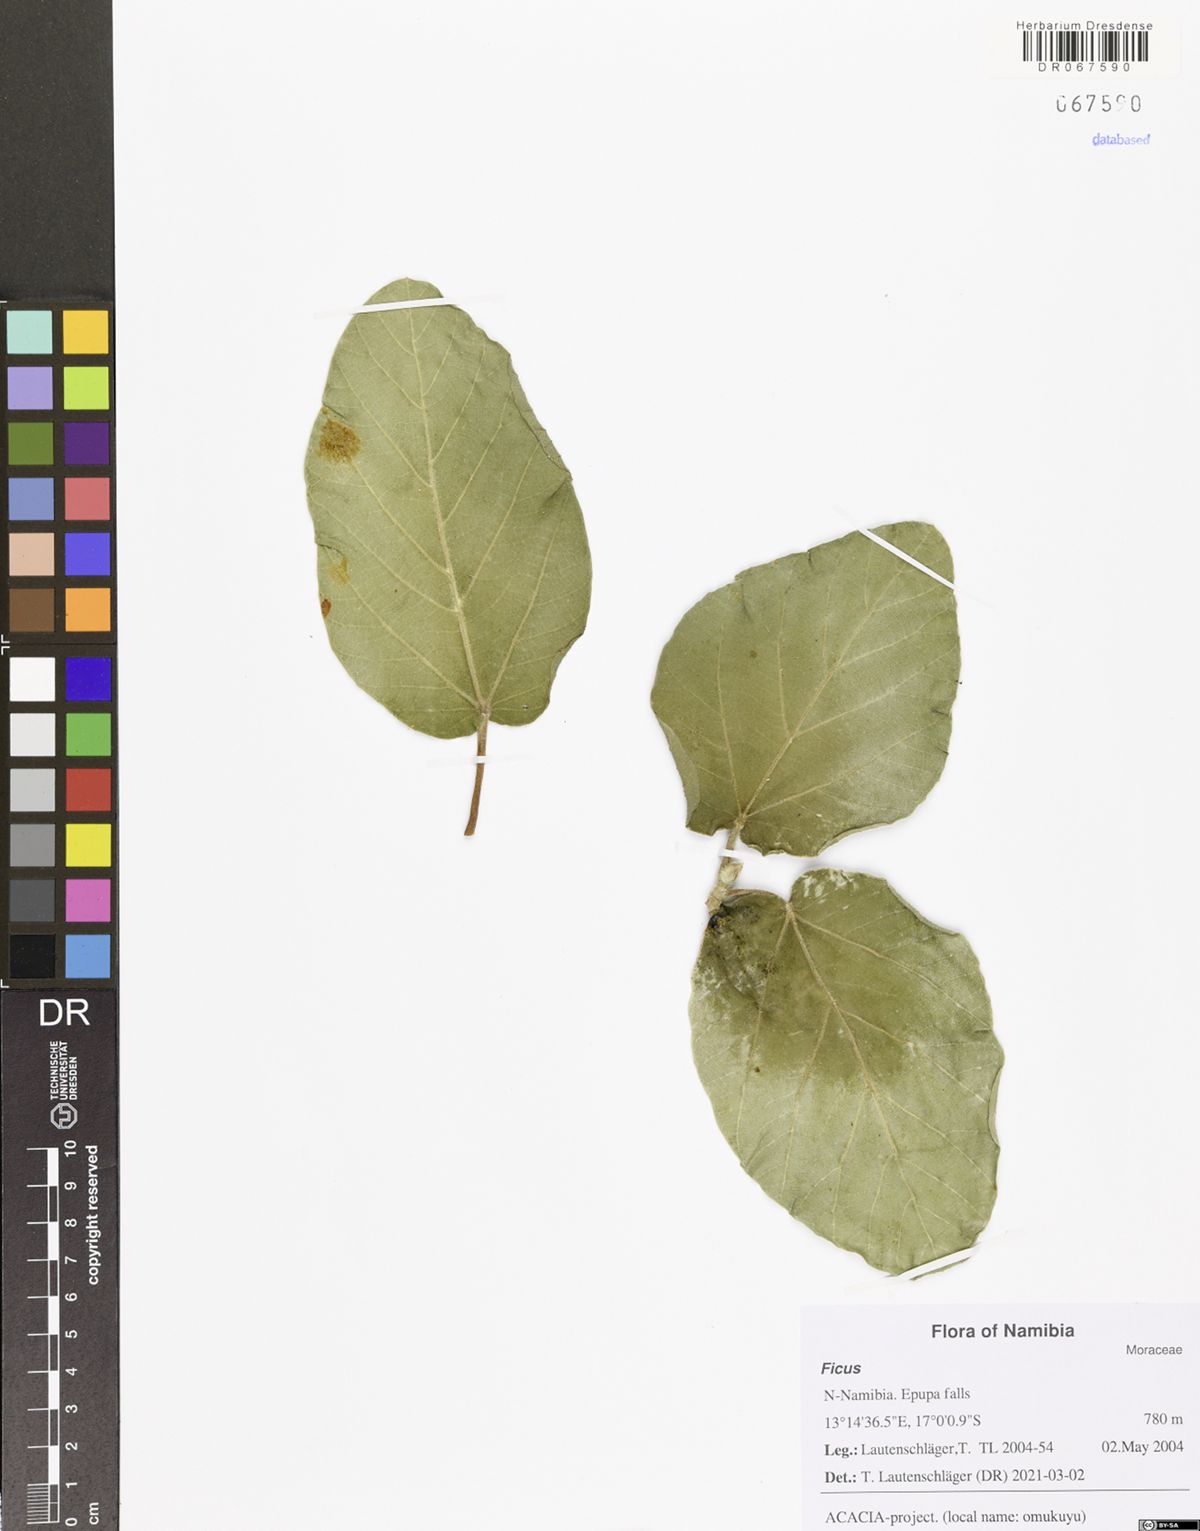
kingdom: Plantae
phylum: Tracheophyta
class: Magnoliopsida
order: Rosales
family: Moraceae
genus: Ficus
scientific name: Ficus
